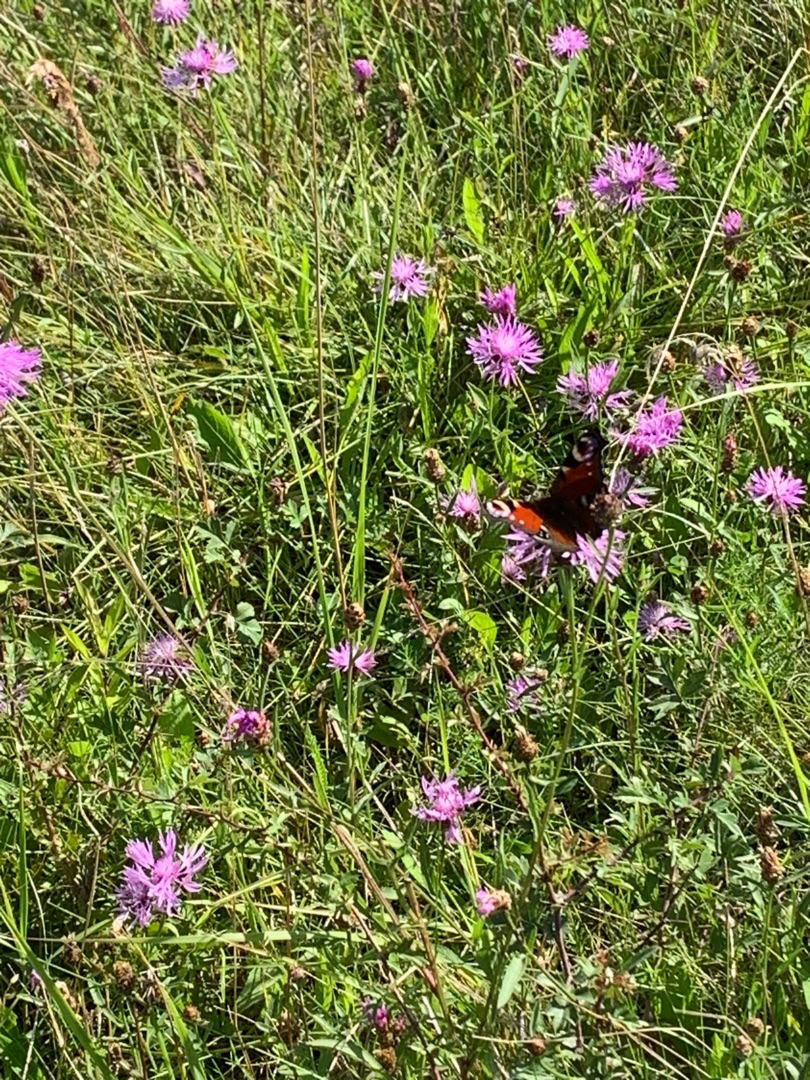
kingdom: Animalia
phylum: Arthropoda
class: Insecta
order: Lepidoptera
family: Nymphalidae
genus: Aglais
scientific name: Aglais io
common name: Dagpåfugleøje
